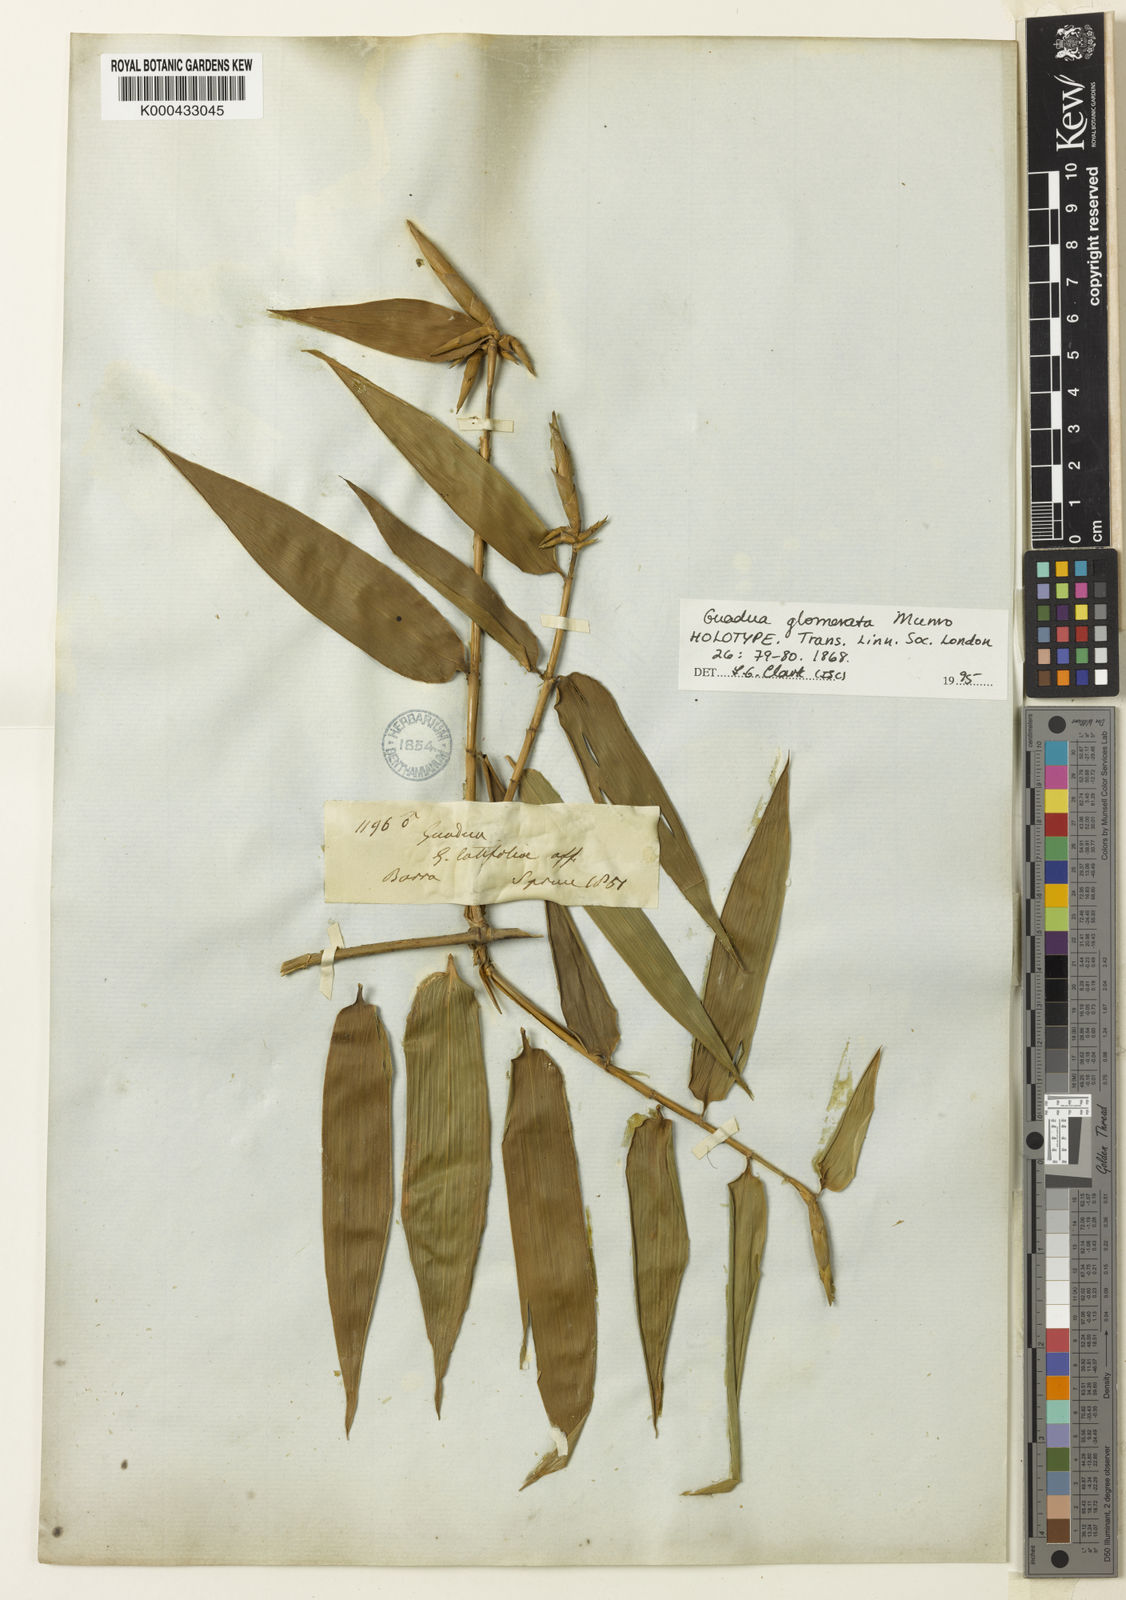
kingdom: Plantae
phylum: Tracheophyta
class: Liliopsida
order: Poales
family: Poaceae
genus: Guadua
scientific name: Guadua glomerata
